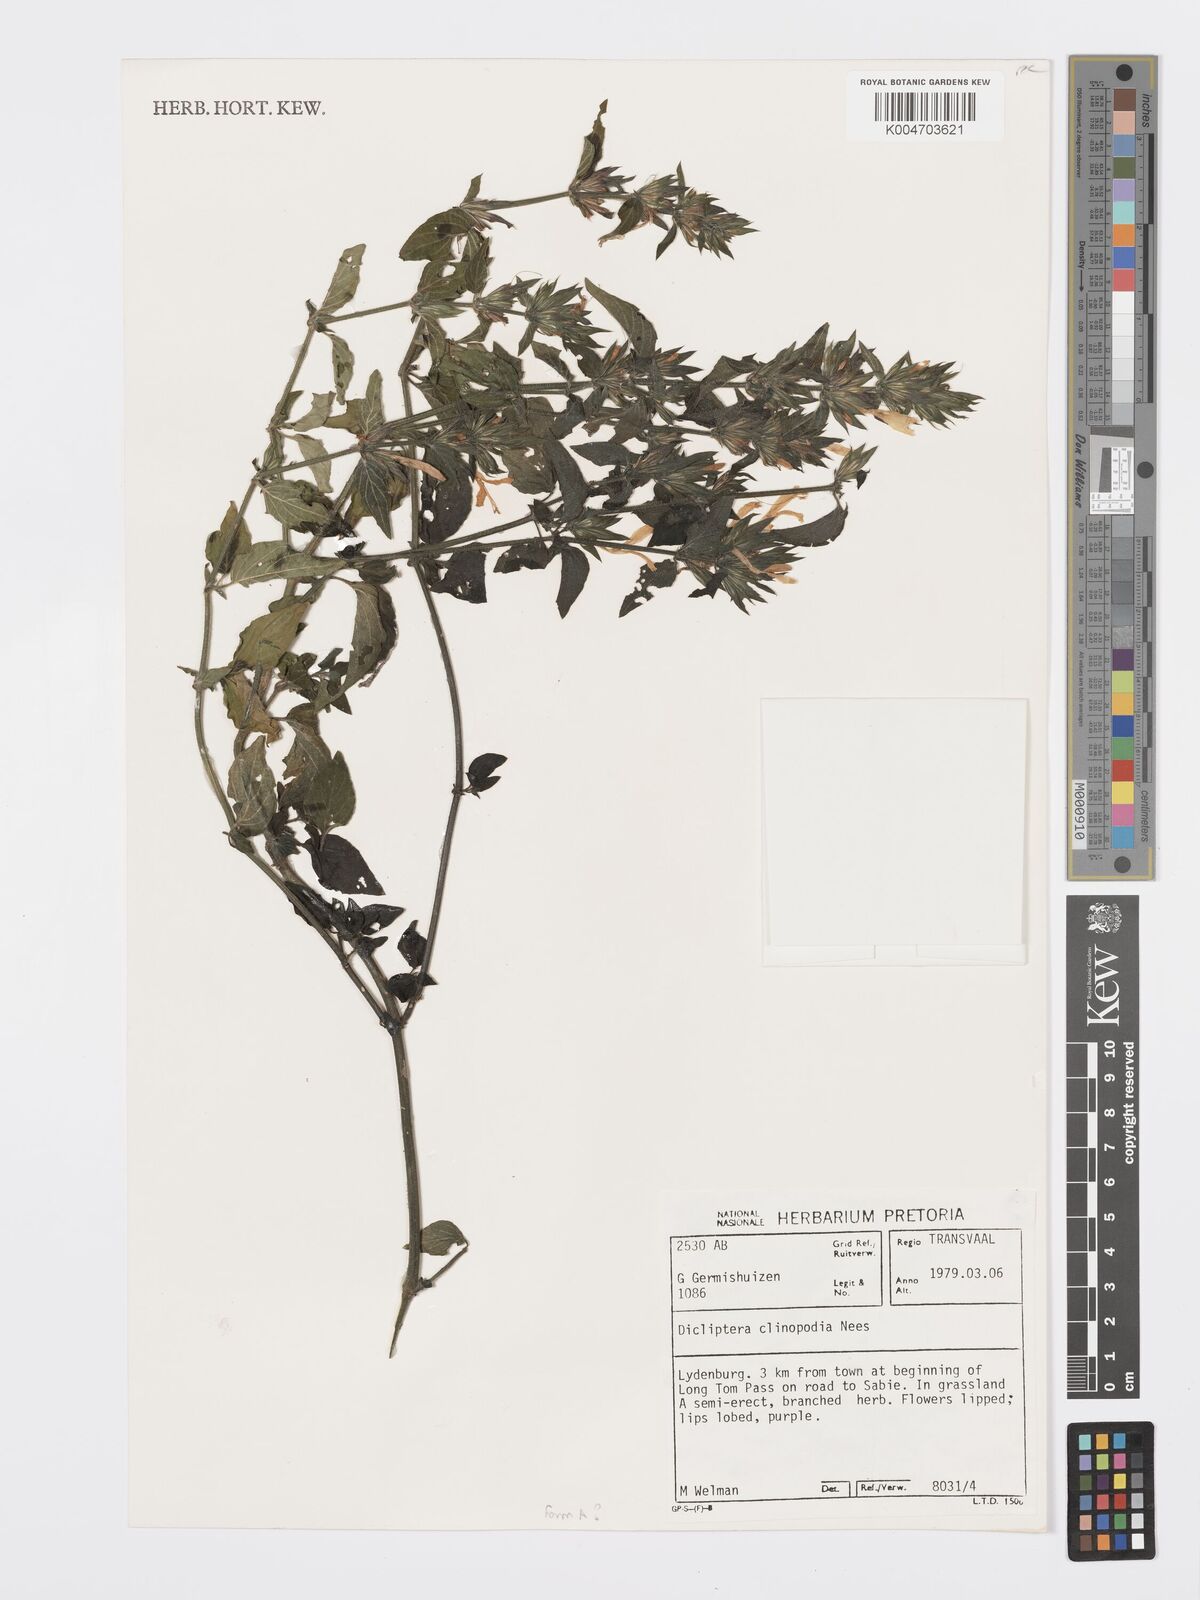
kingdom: Plantae
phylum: Tracheophyta
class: Magnoliopsida
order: Lamiales
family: Acanthaceae
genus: Dicliptera
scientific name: Dicliptera clinopodia
